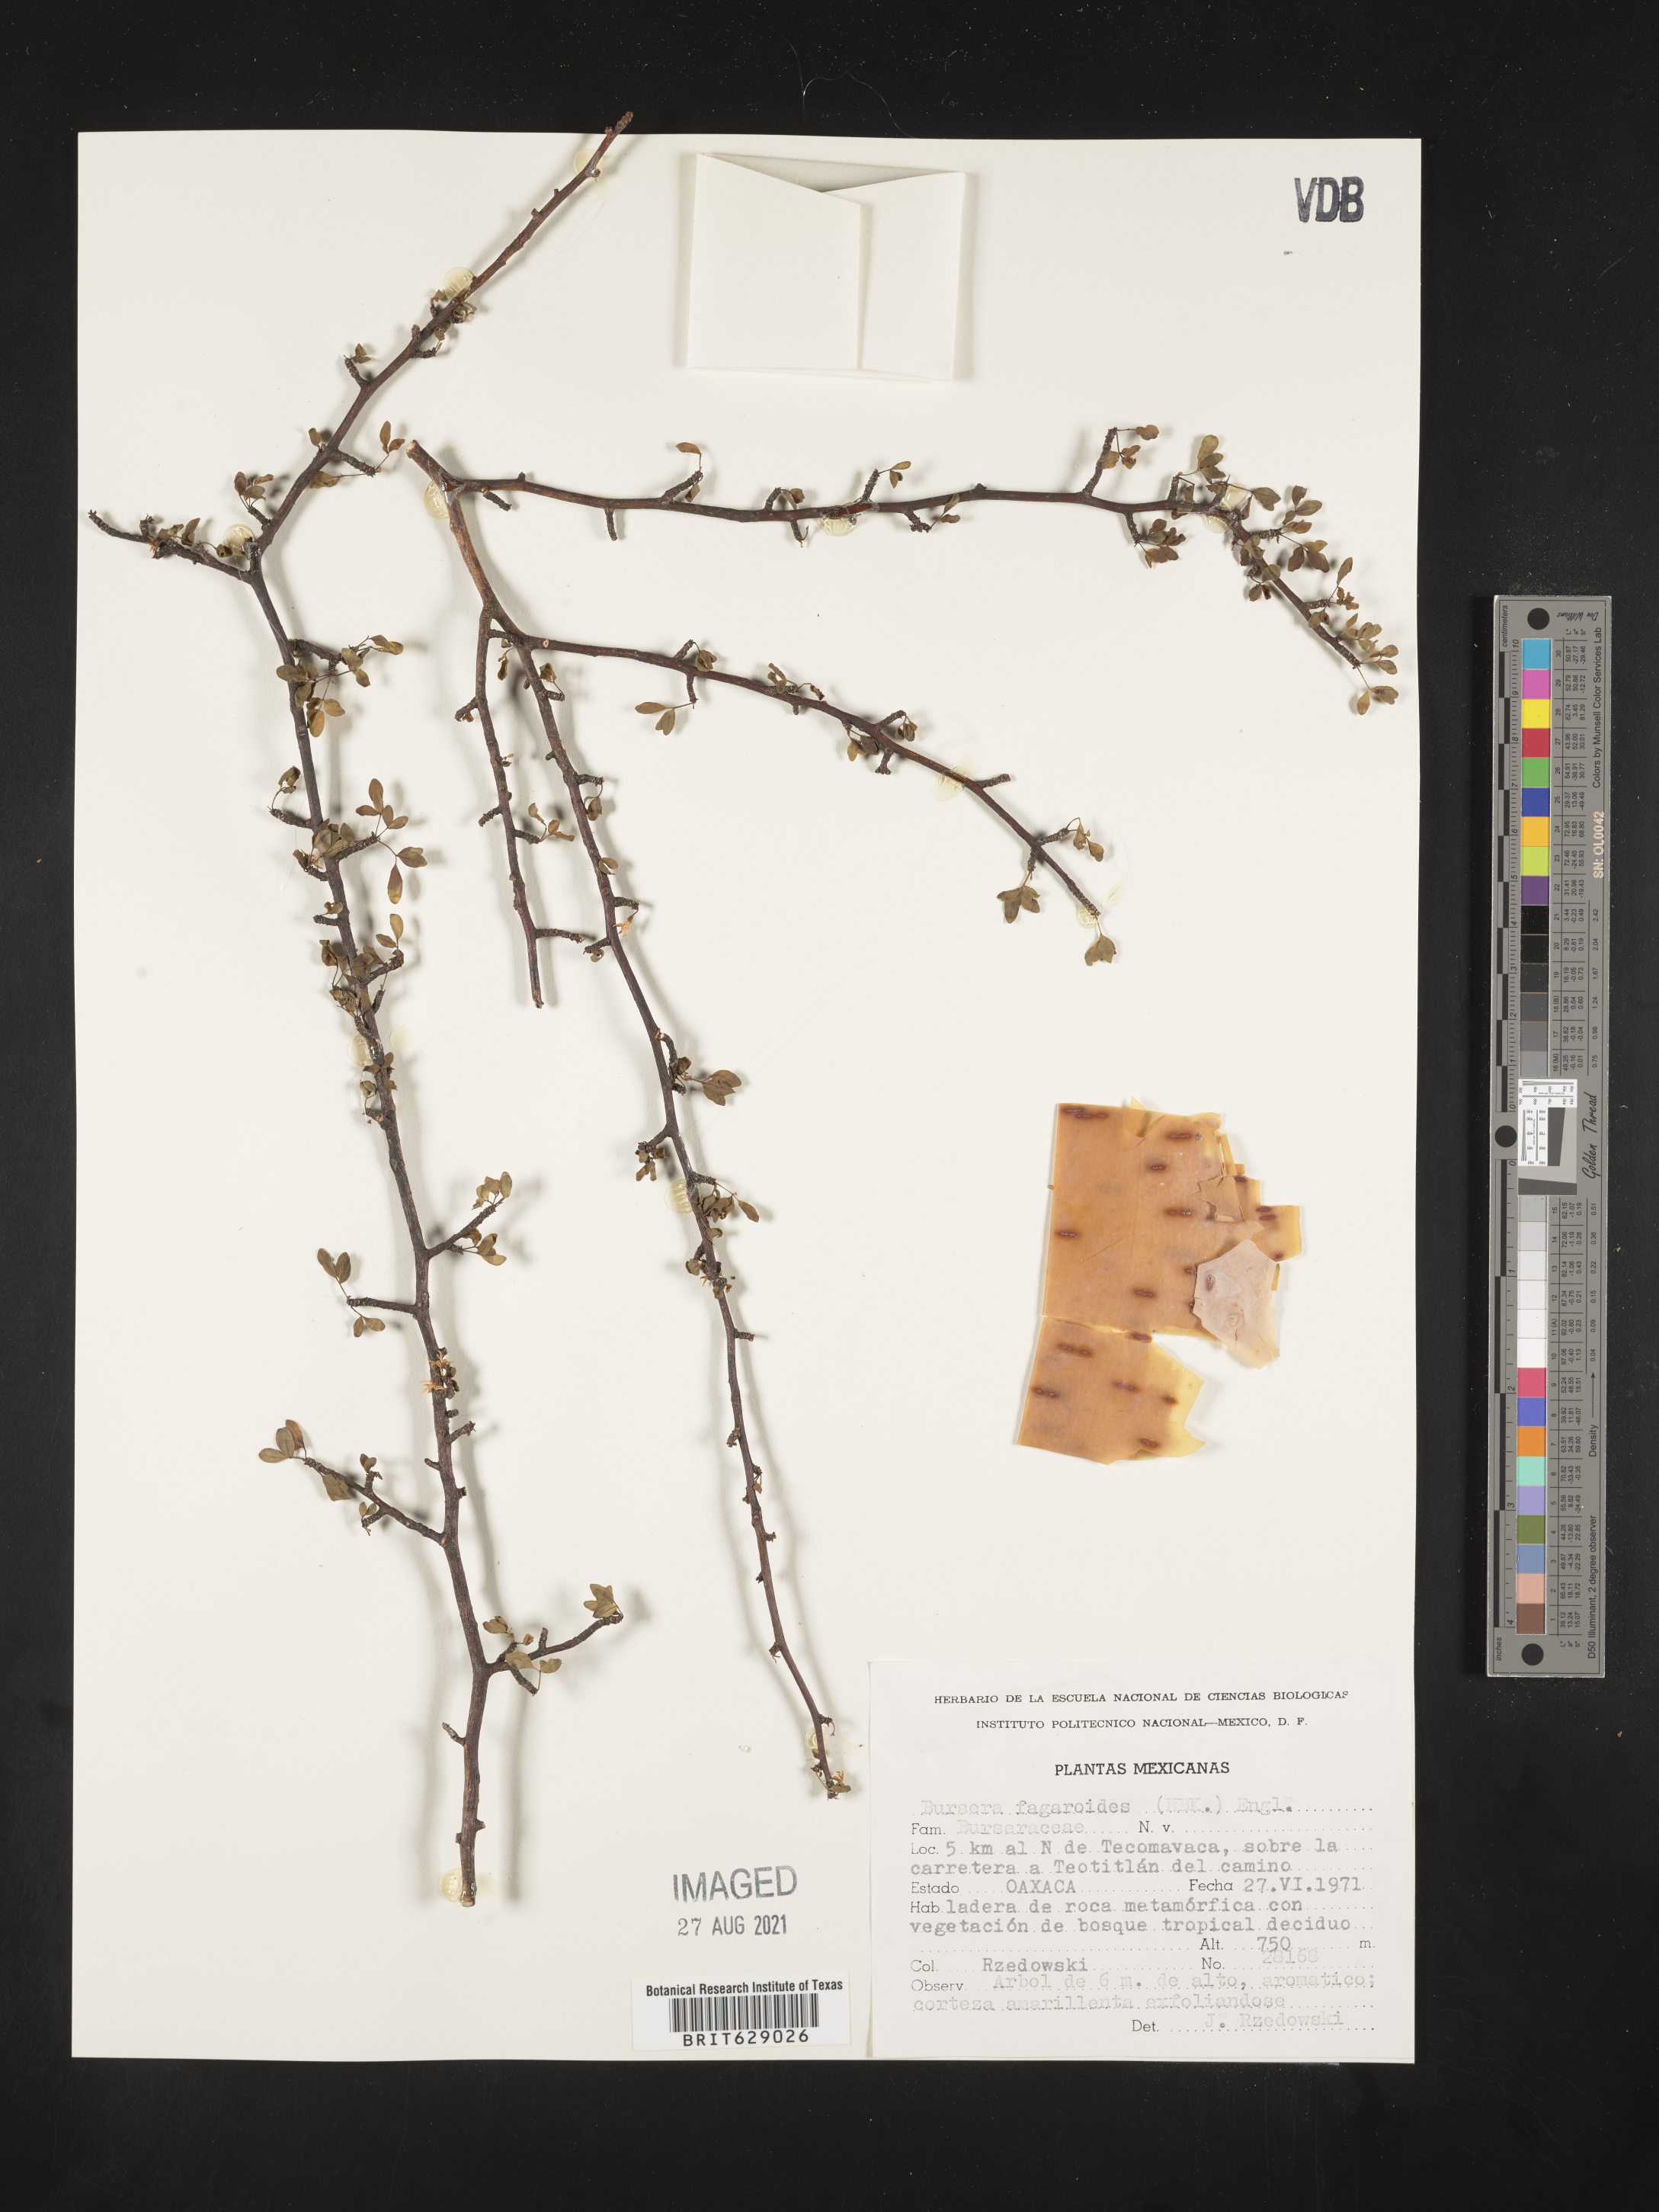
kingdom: Plantae
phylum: Tracheophyta
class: Magnoliopsida
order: Sapindales
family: Burseraceae
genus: Bursera
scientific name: Bursera
